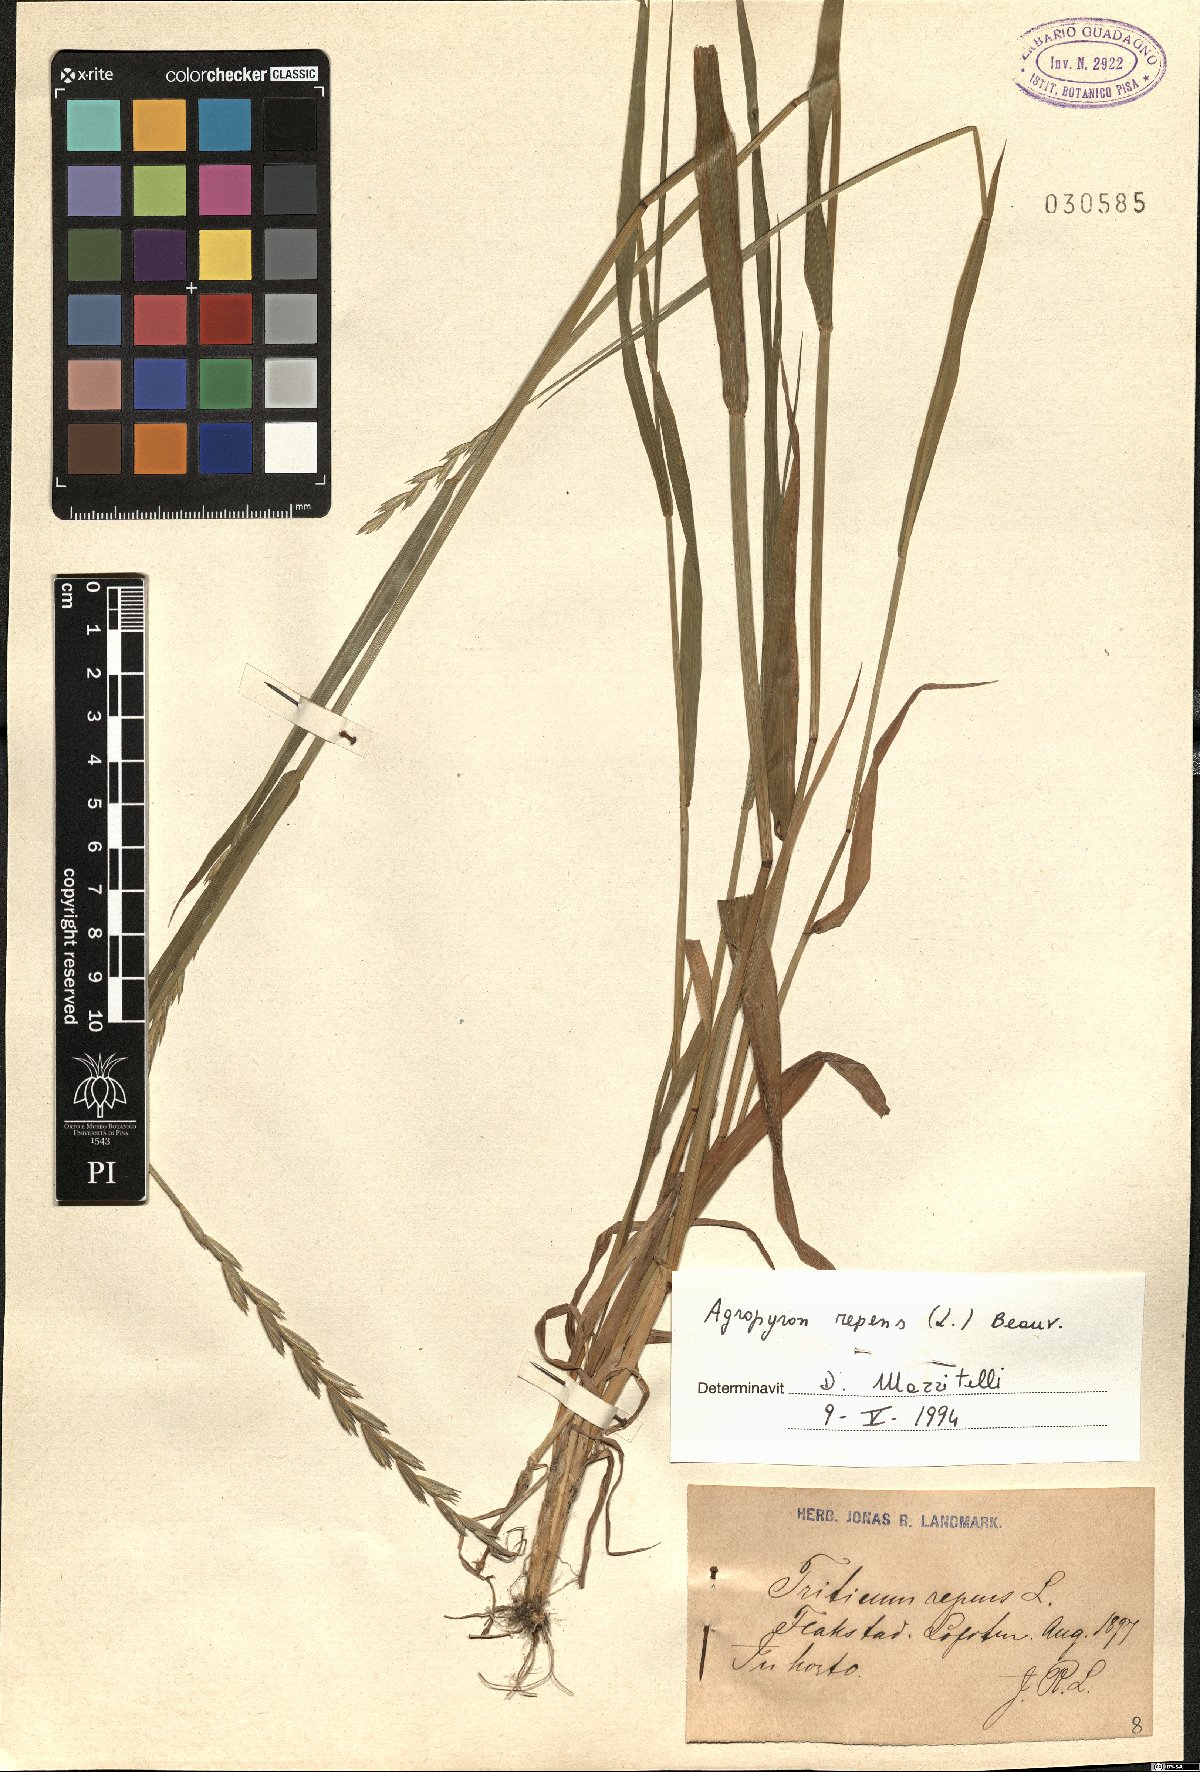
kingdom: Plantae
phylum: Tracheophyta
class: Liliopsida
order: Poales
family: Poaceae
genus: Elymus
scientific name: Elymus repens
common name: Quackgrass
